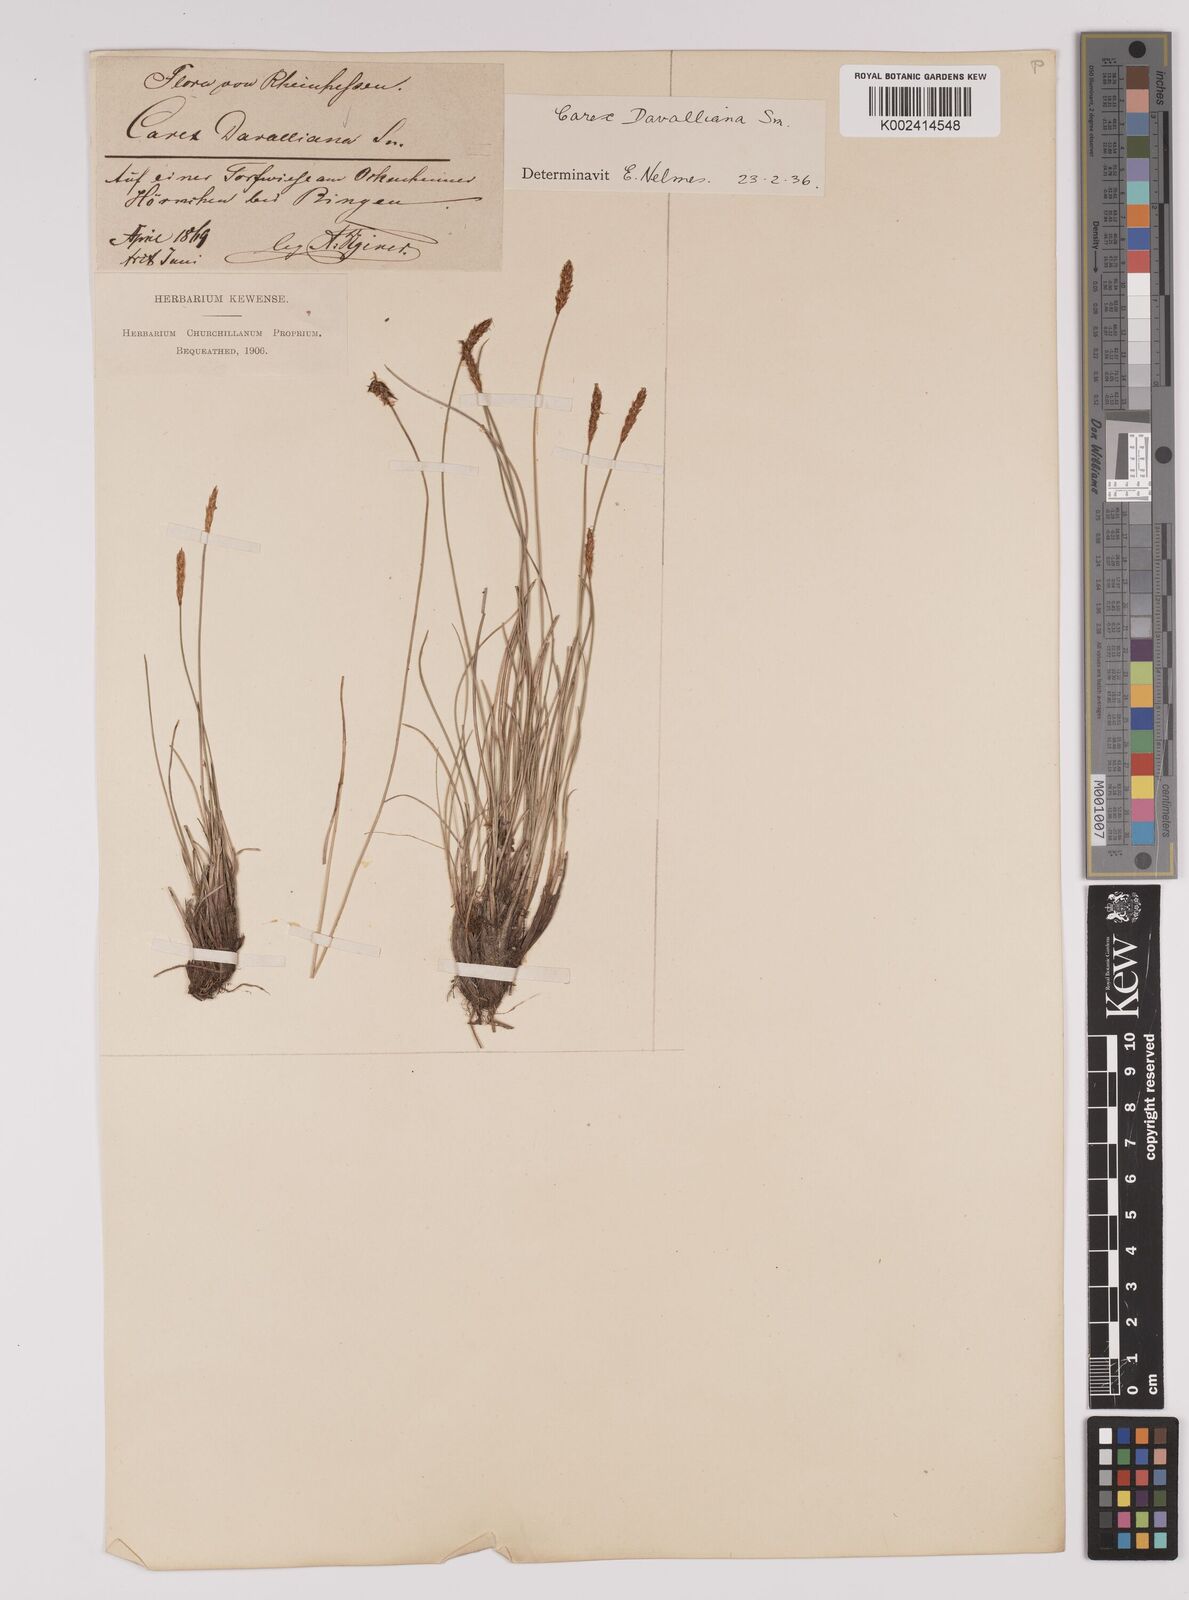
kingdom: Plantae
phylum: Tracheophyta
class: Liliopsida
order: Poales
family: Cyperaceae
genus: Carex
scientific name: Carex davalliana
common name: Davall's sedge
